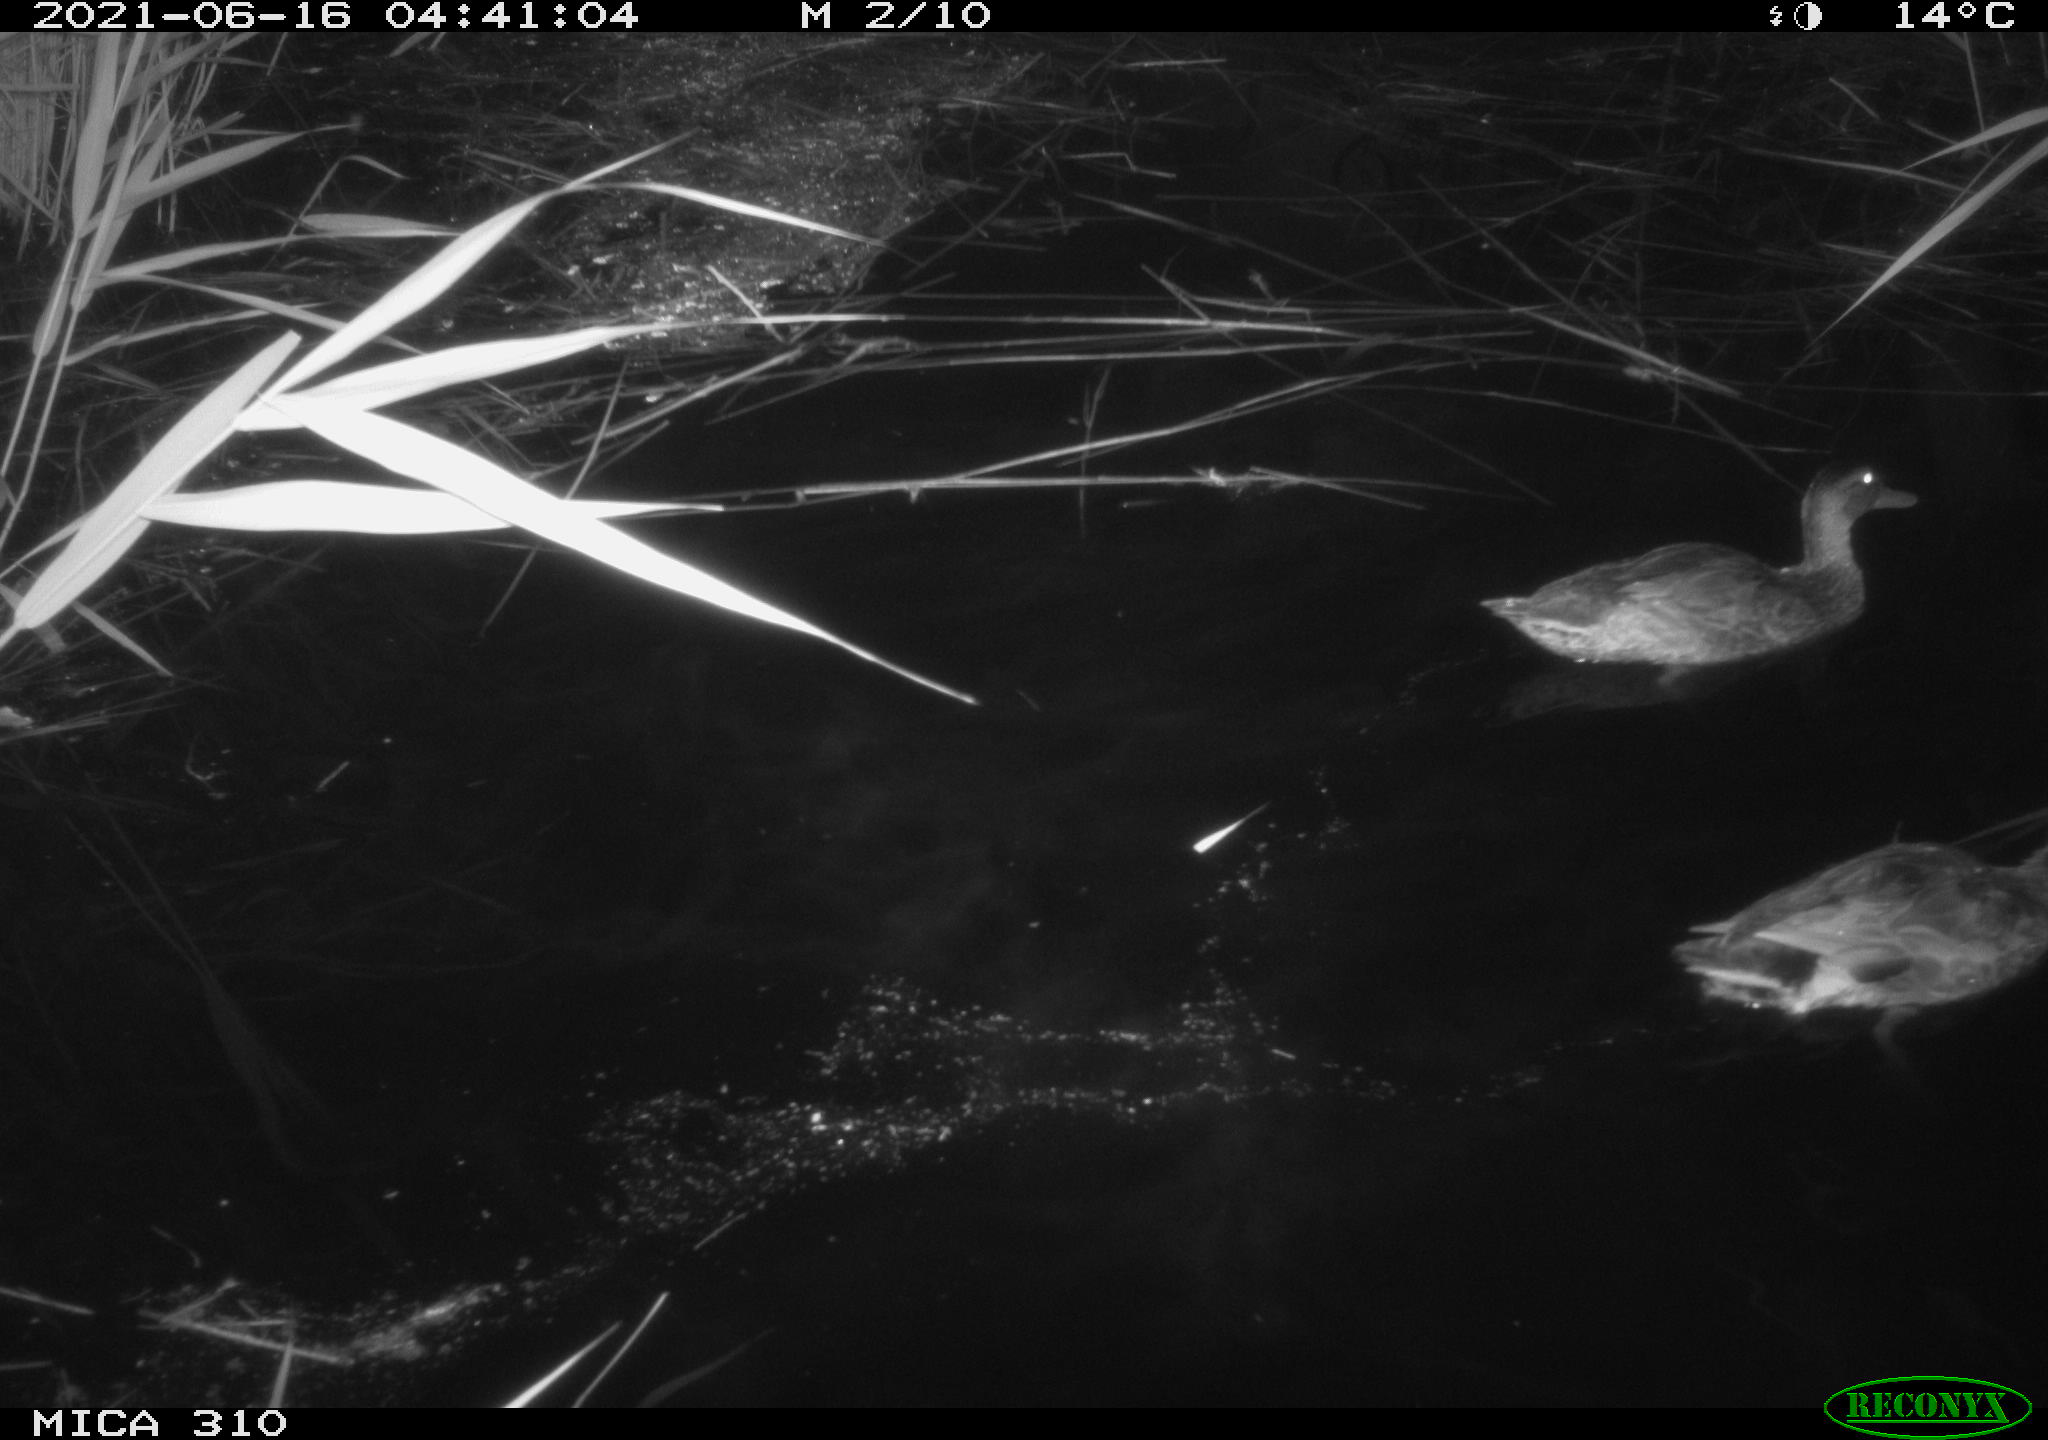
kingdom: Animalia
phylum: Chordata
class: Aves
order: Anseriformes
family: Anatidae
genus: Anas
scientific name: Anas
